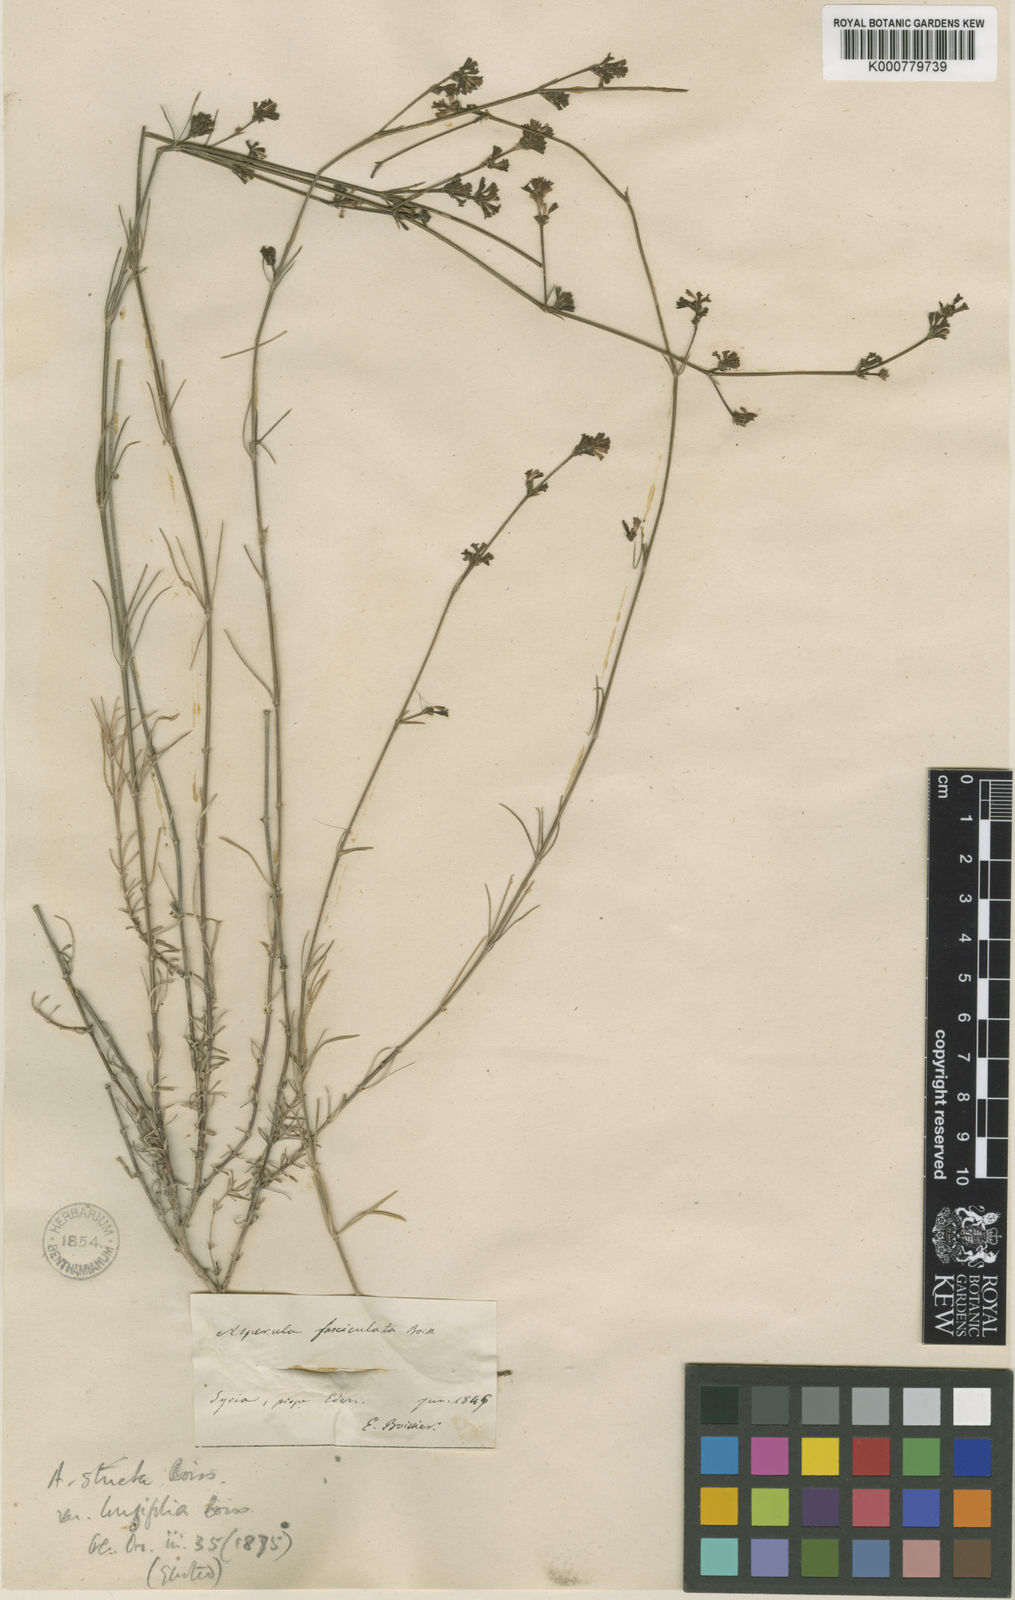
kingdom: Plantae
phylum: Tracheophyta
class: Magnoliopsida
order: Gentianales
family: Rubiaceae
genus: Cynanchica
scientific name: Cynanchica stricta
